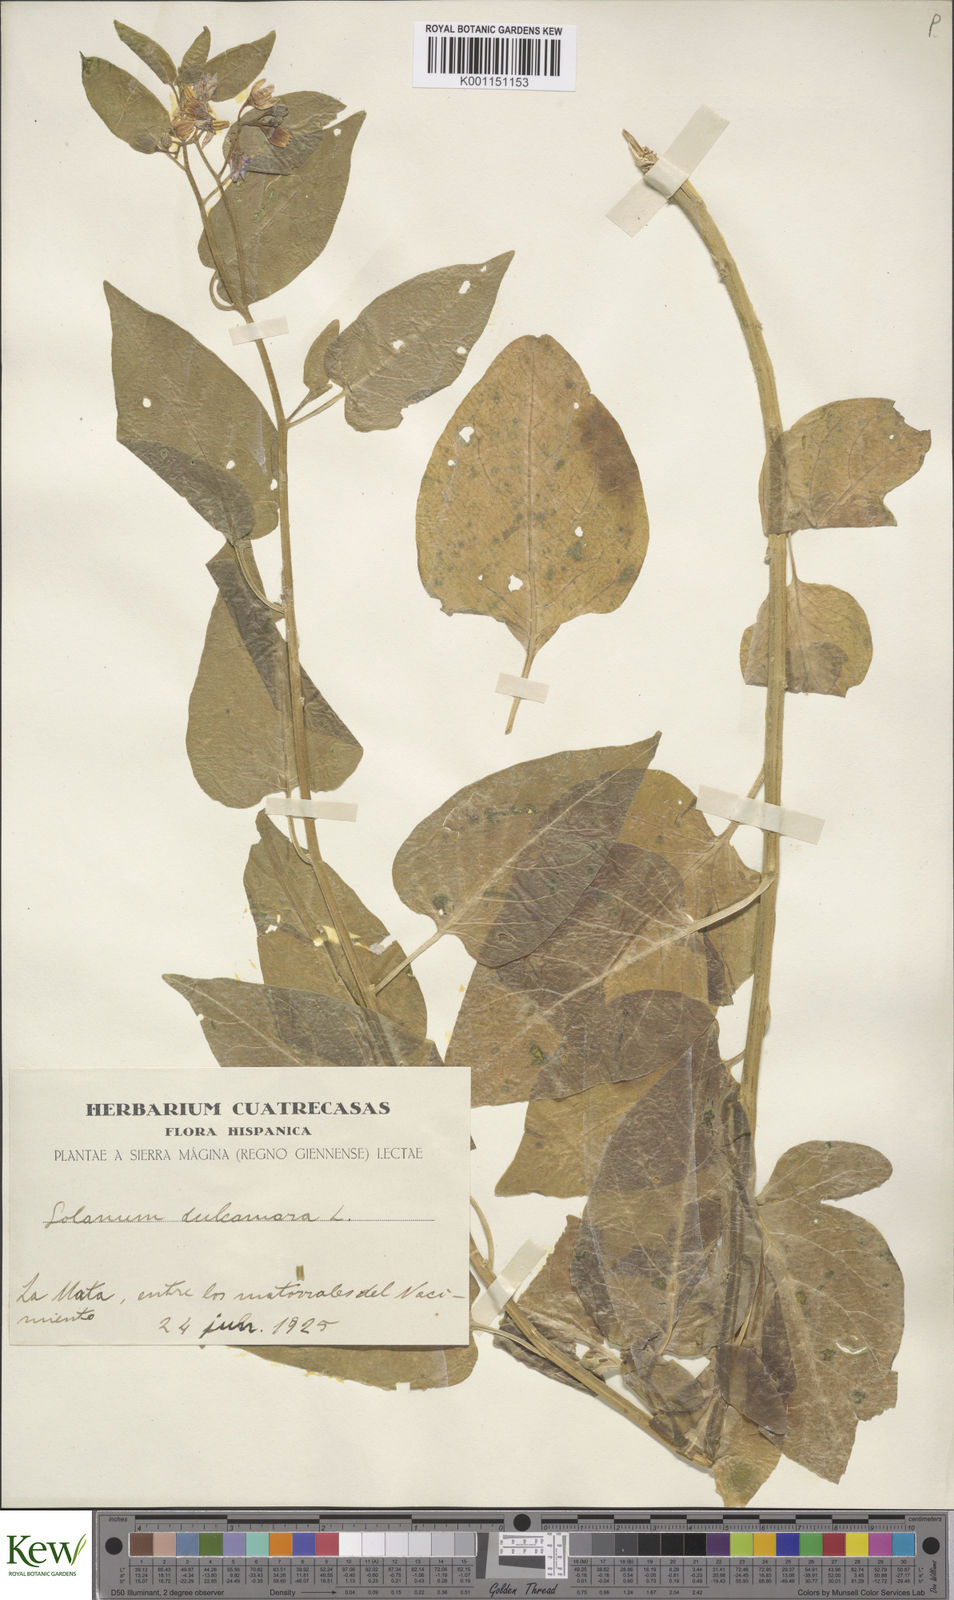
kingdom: Plantae
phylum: Tracheophyta
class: Magnoliopsida
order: Solanales
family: Solanaceae
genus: Solanum
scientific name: Solanum dulcamara
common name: Climbing nightshade
